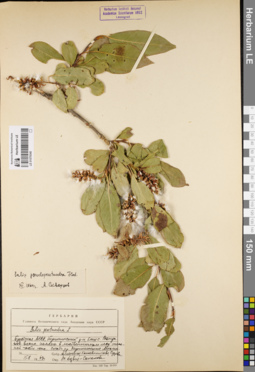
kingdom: Plantae
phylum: Tracheophyta
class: Magnoliopsida
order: Malpighiales
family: Salicaceae
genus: Salix
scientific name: Salix pseudopentandra
